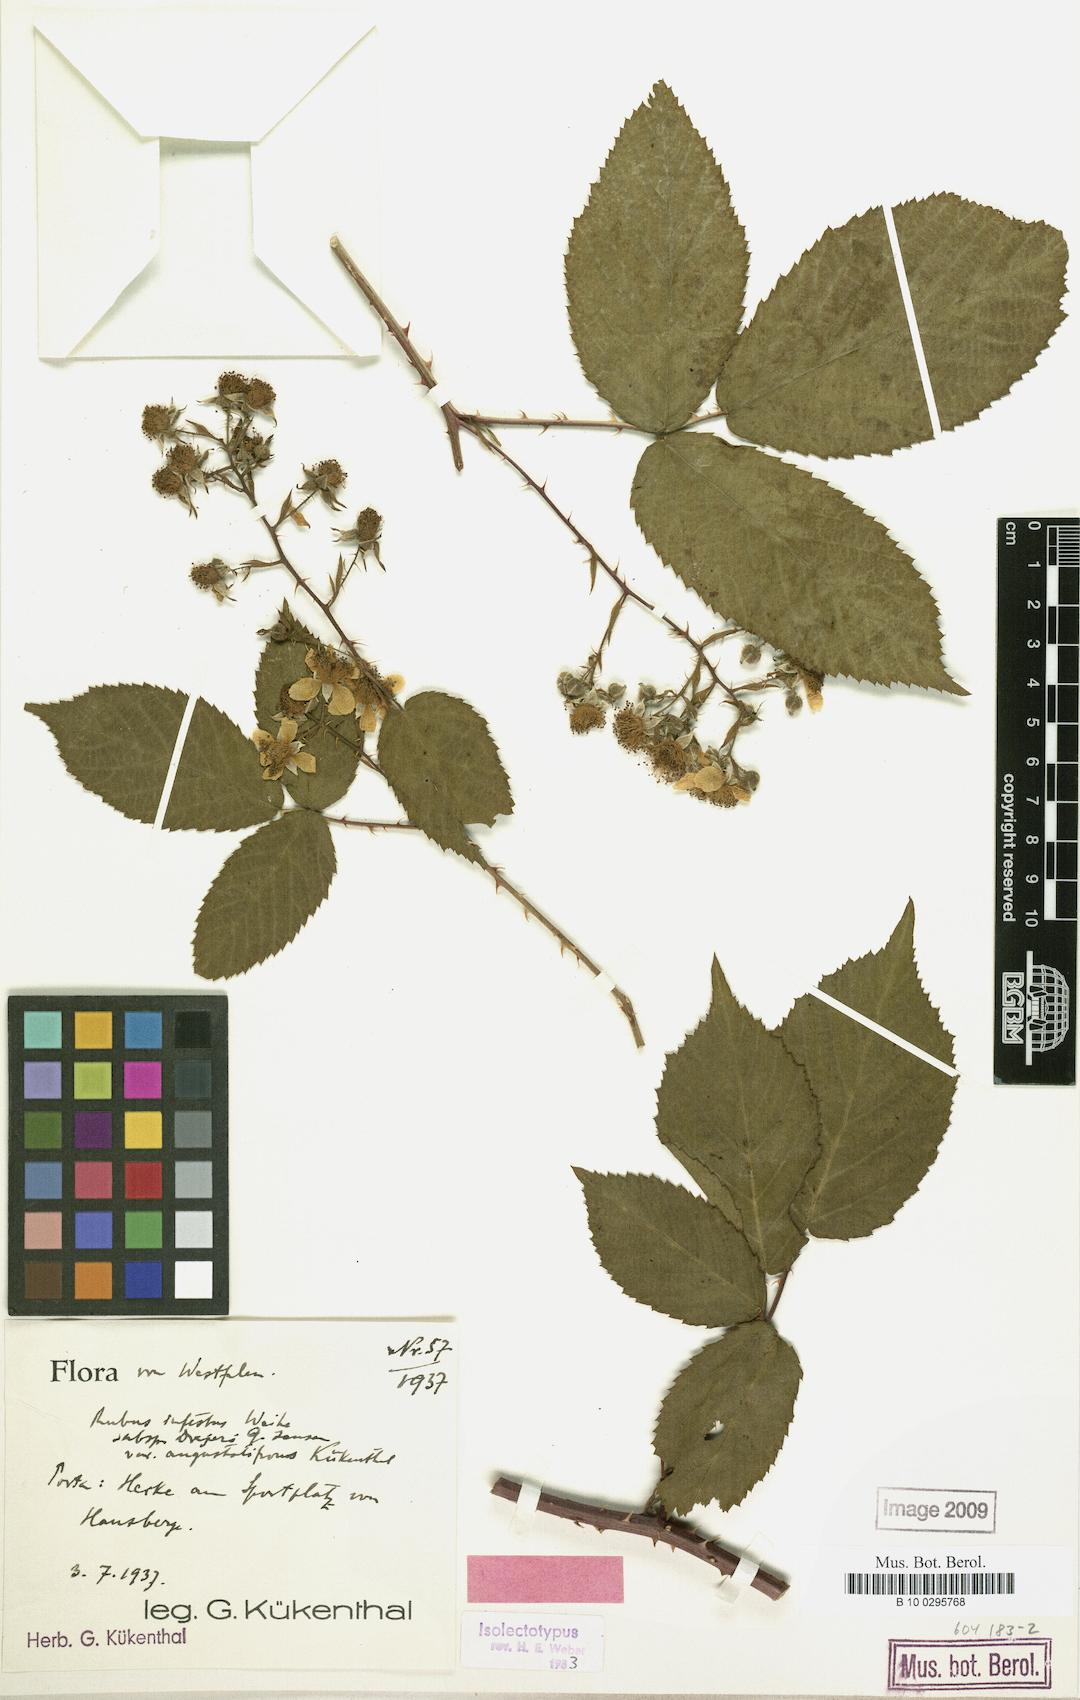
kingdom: Plantae
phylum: Tracheophyta
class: Magnoliopsida
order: Rosales
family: Rosaceae
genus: Rubus
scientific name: Rubus siekensis
